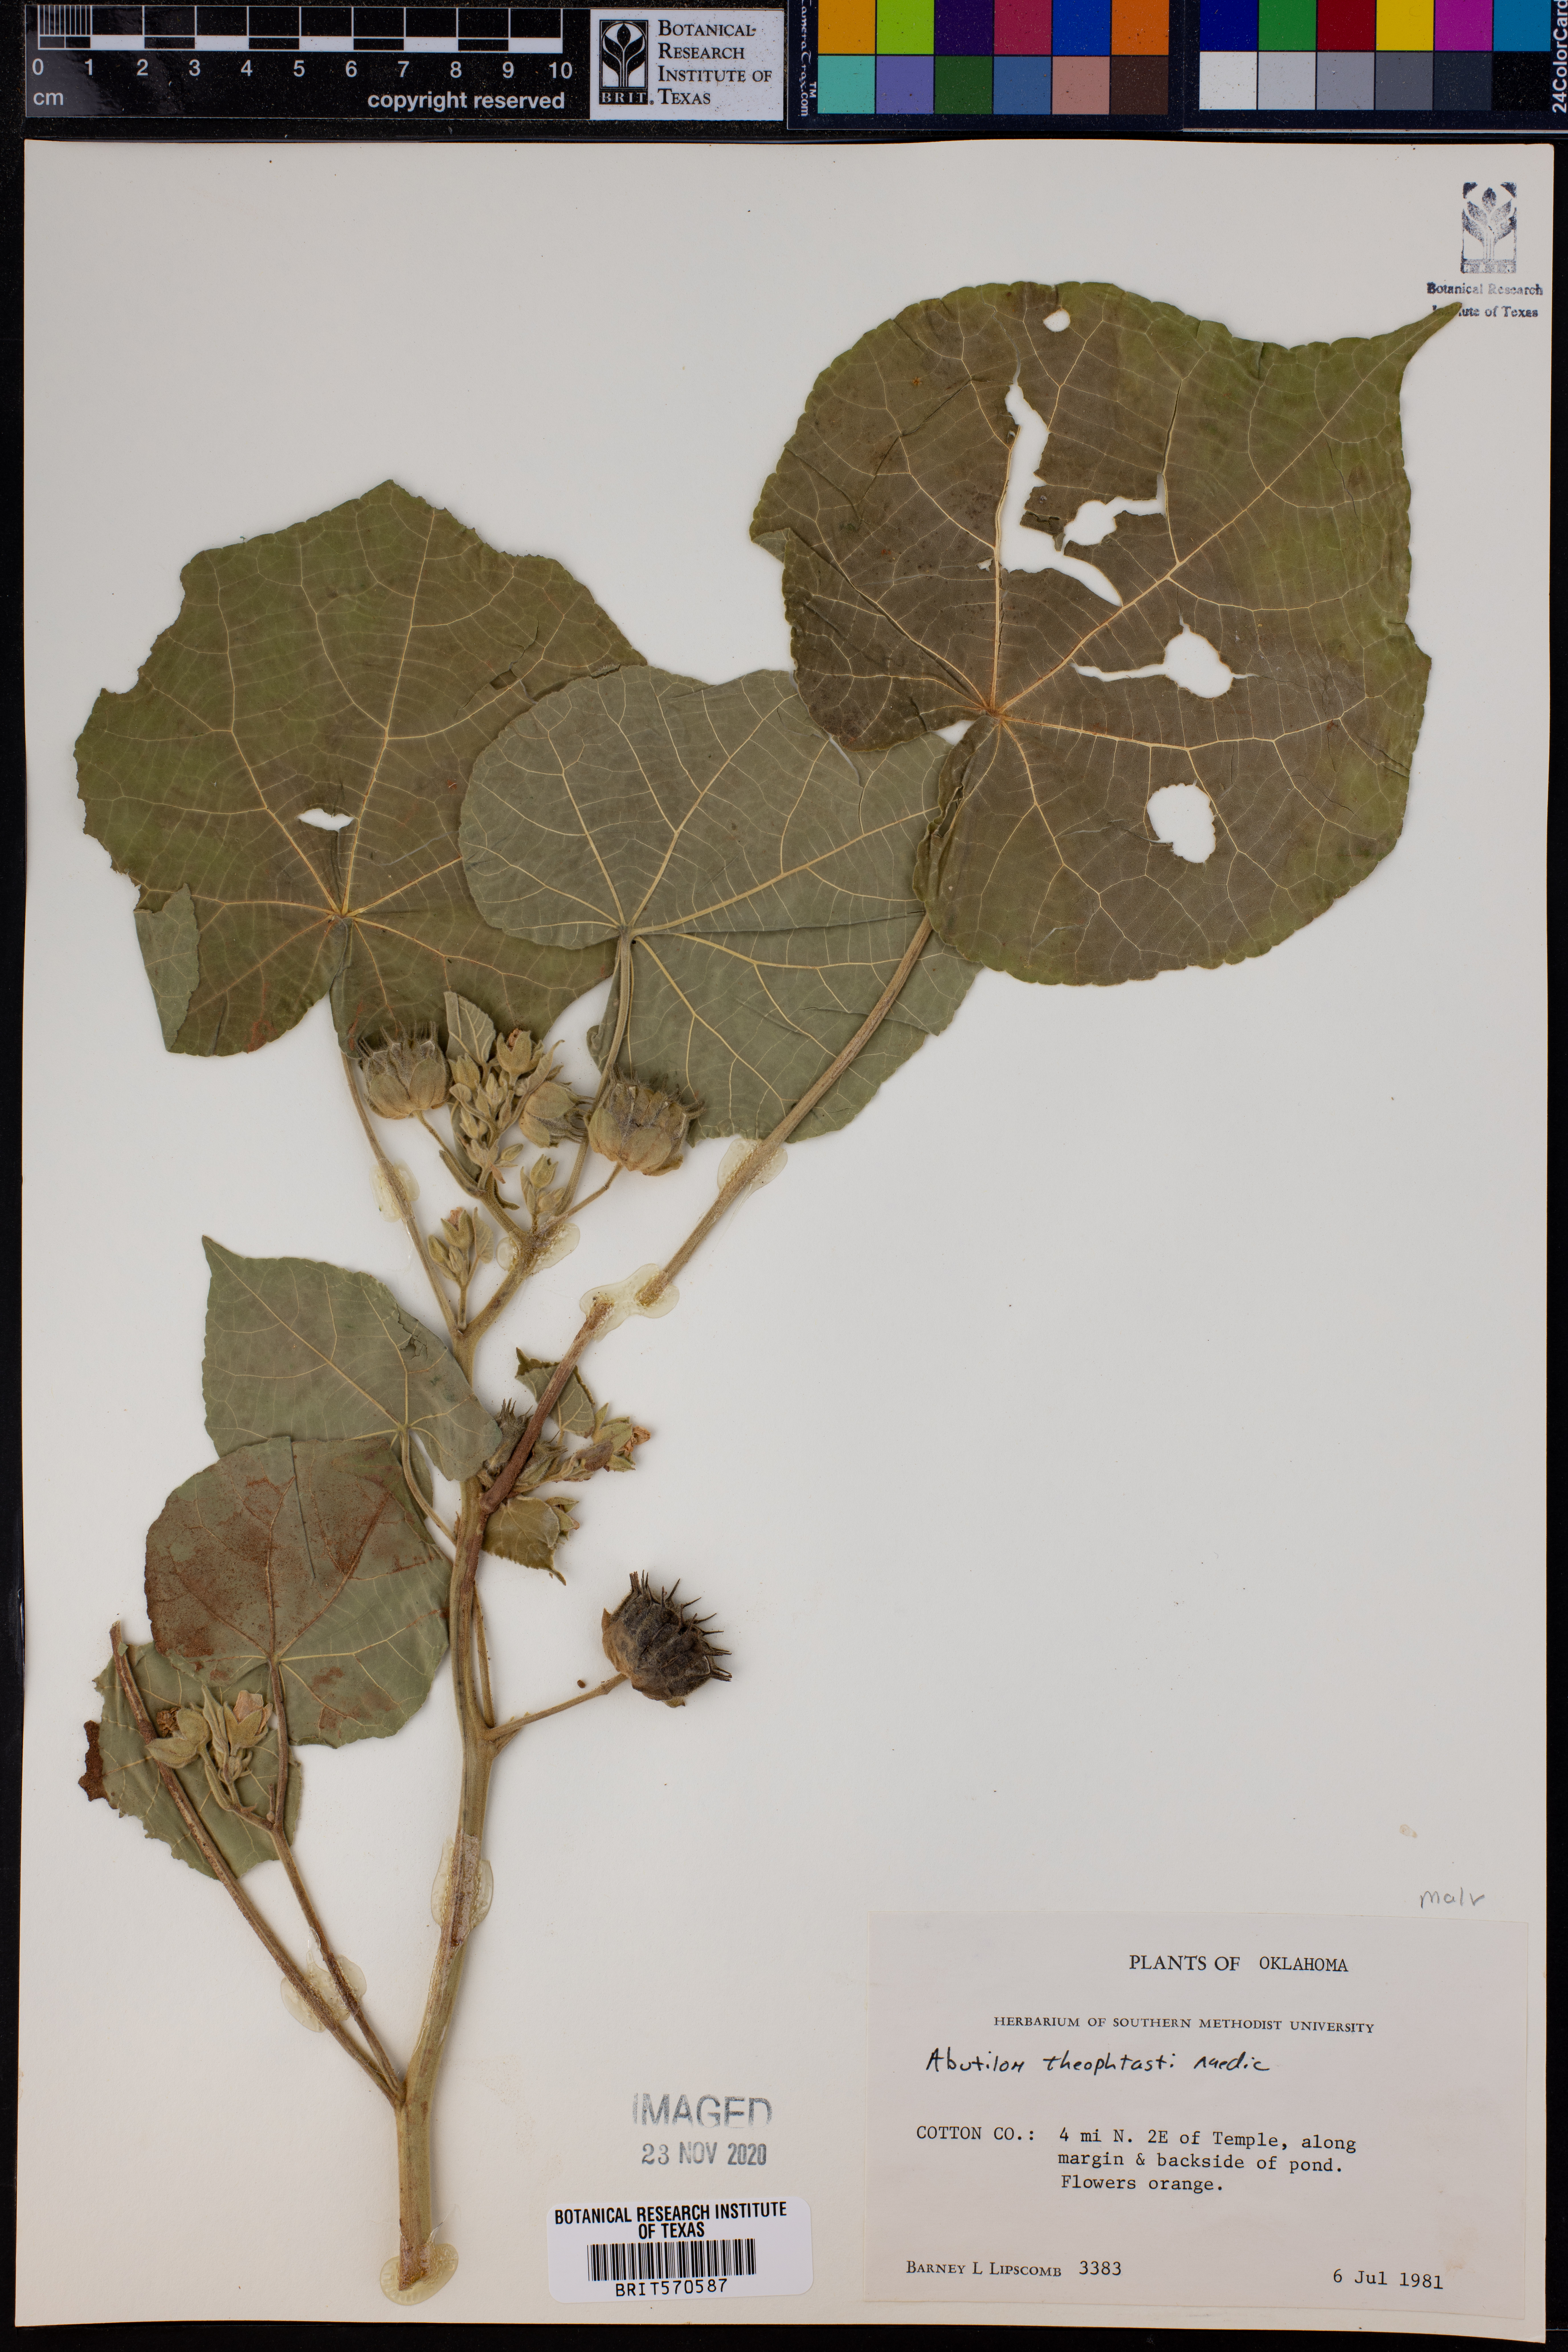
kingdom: Plantae
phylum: Tracheophyta
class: Magnoliopsida
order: Malvales
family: Malvaceae
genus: Abutilon
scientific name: Abutilon theophrasti
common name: Velvetleaf
